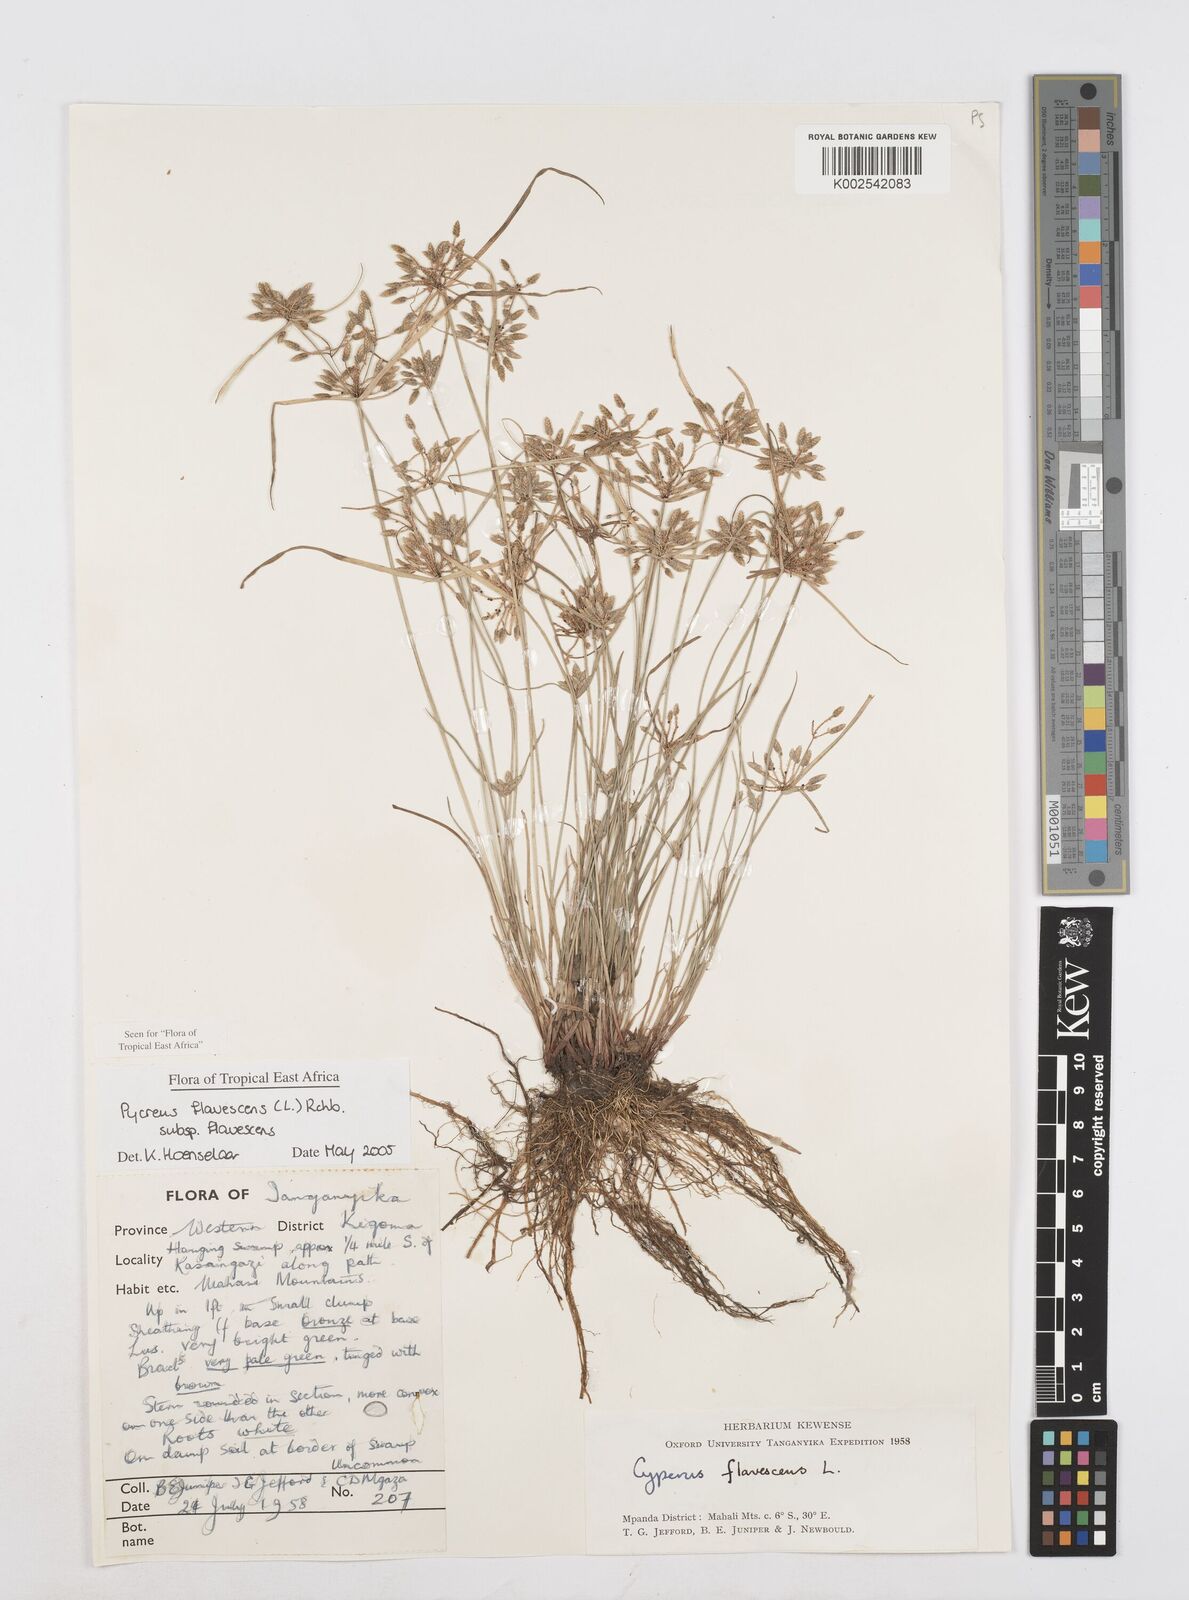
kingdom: Plantae
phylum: Tracheophyta
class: Liliopsida
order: Poales
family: Cyperaceae
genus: Cyperus
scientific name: Cyperus flavescens
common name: Yellow galingale
